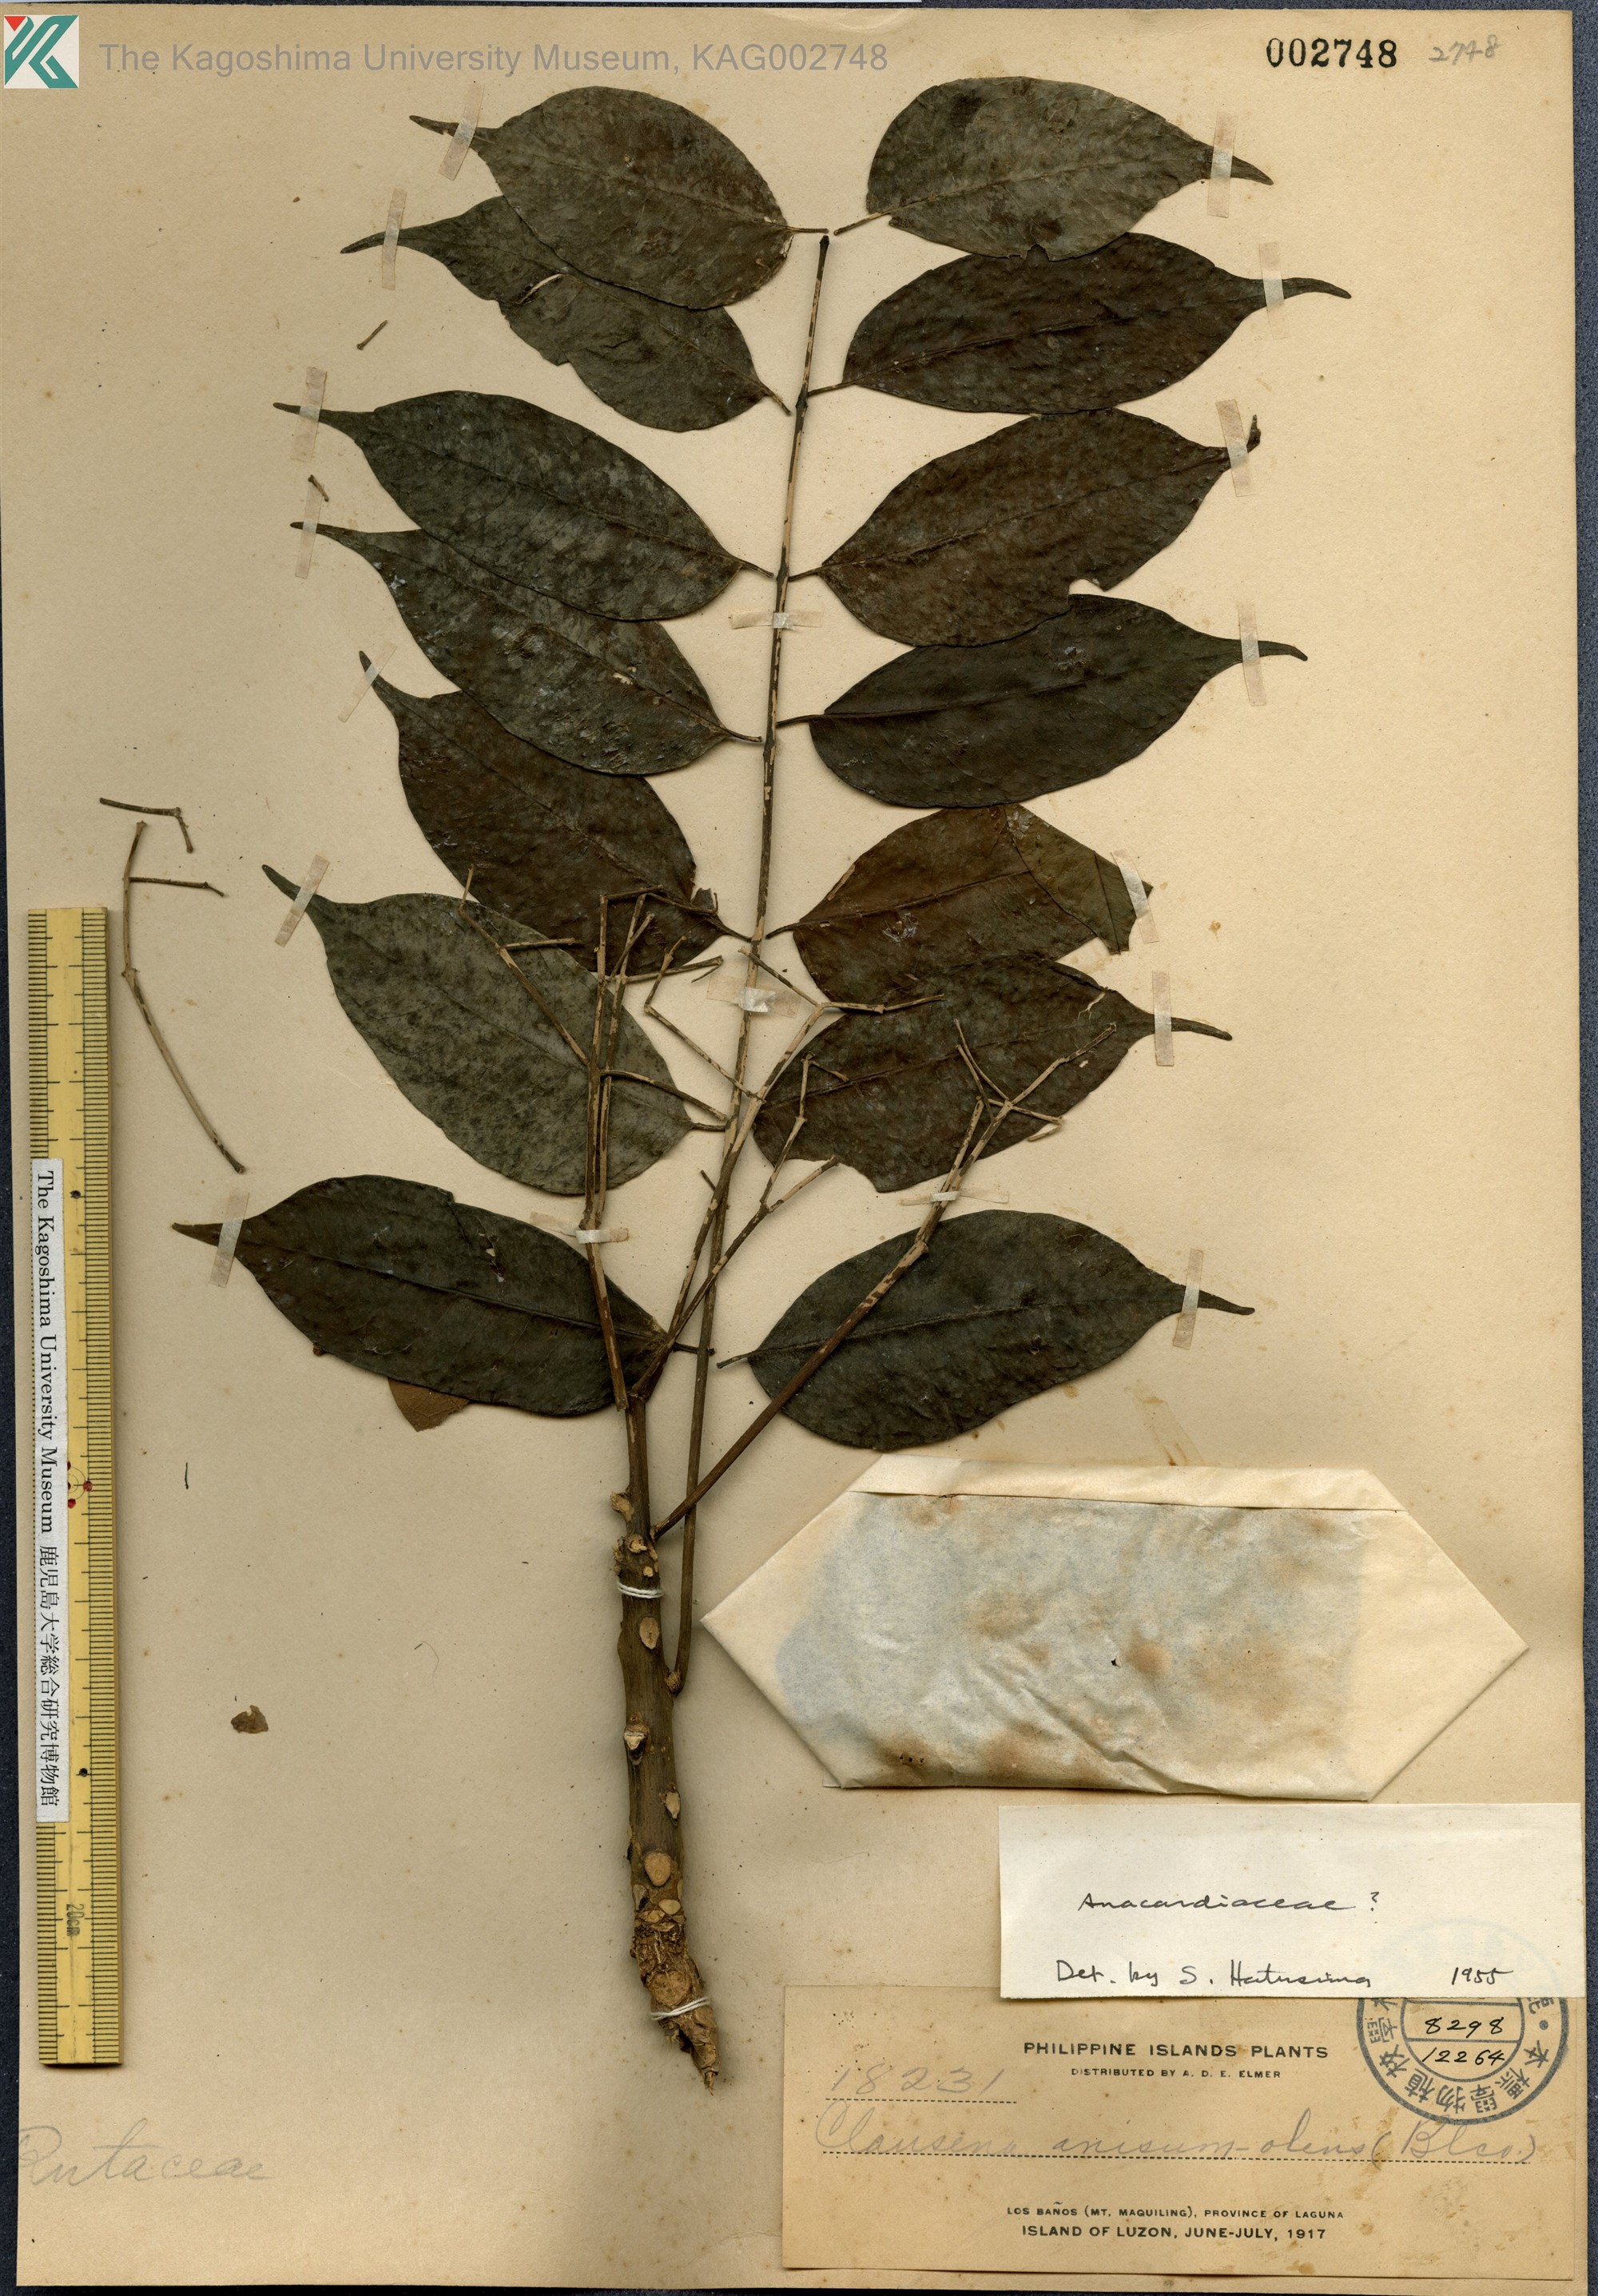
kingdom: Plantae
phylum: Tracheophyta
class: Magnoliopsida
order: Sapindales
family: Anacardiaceae
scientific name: Anacardiaceae
